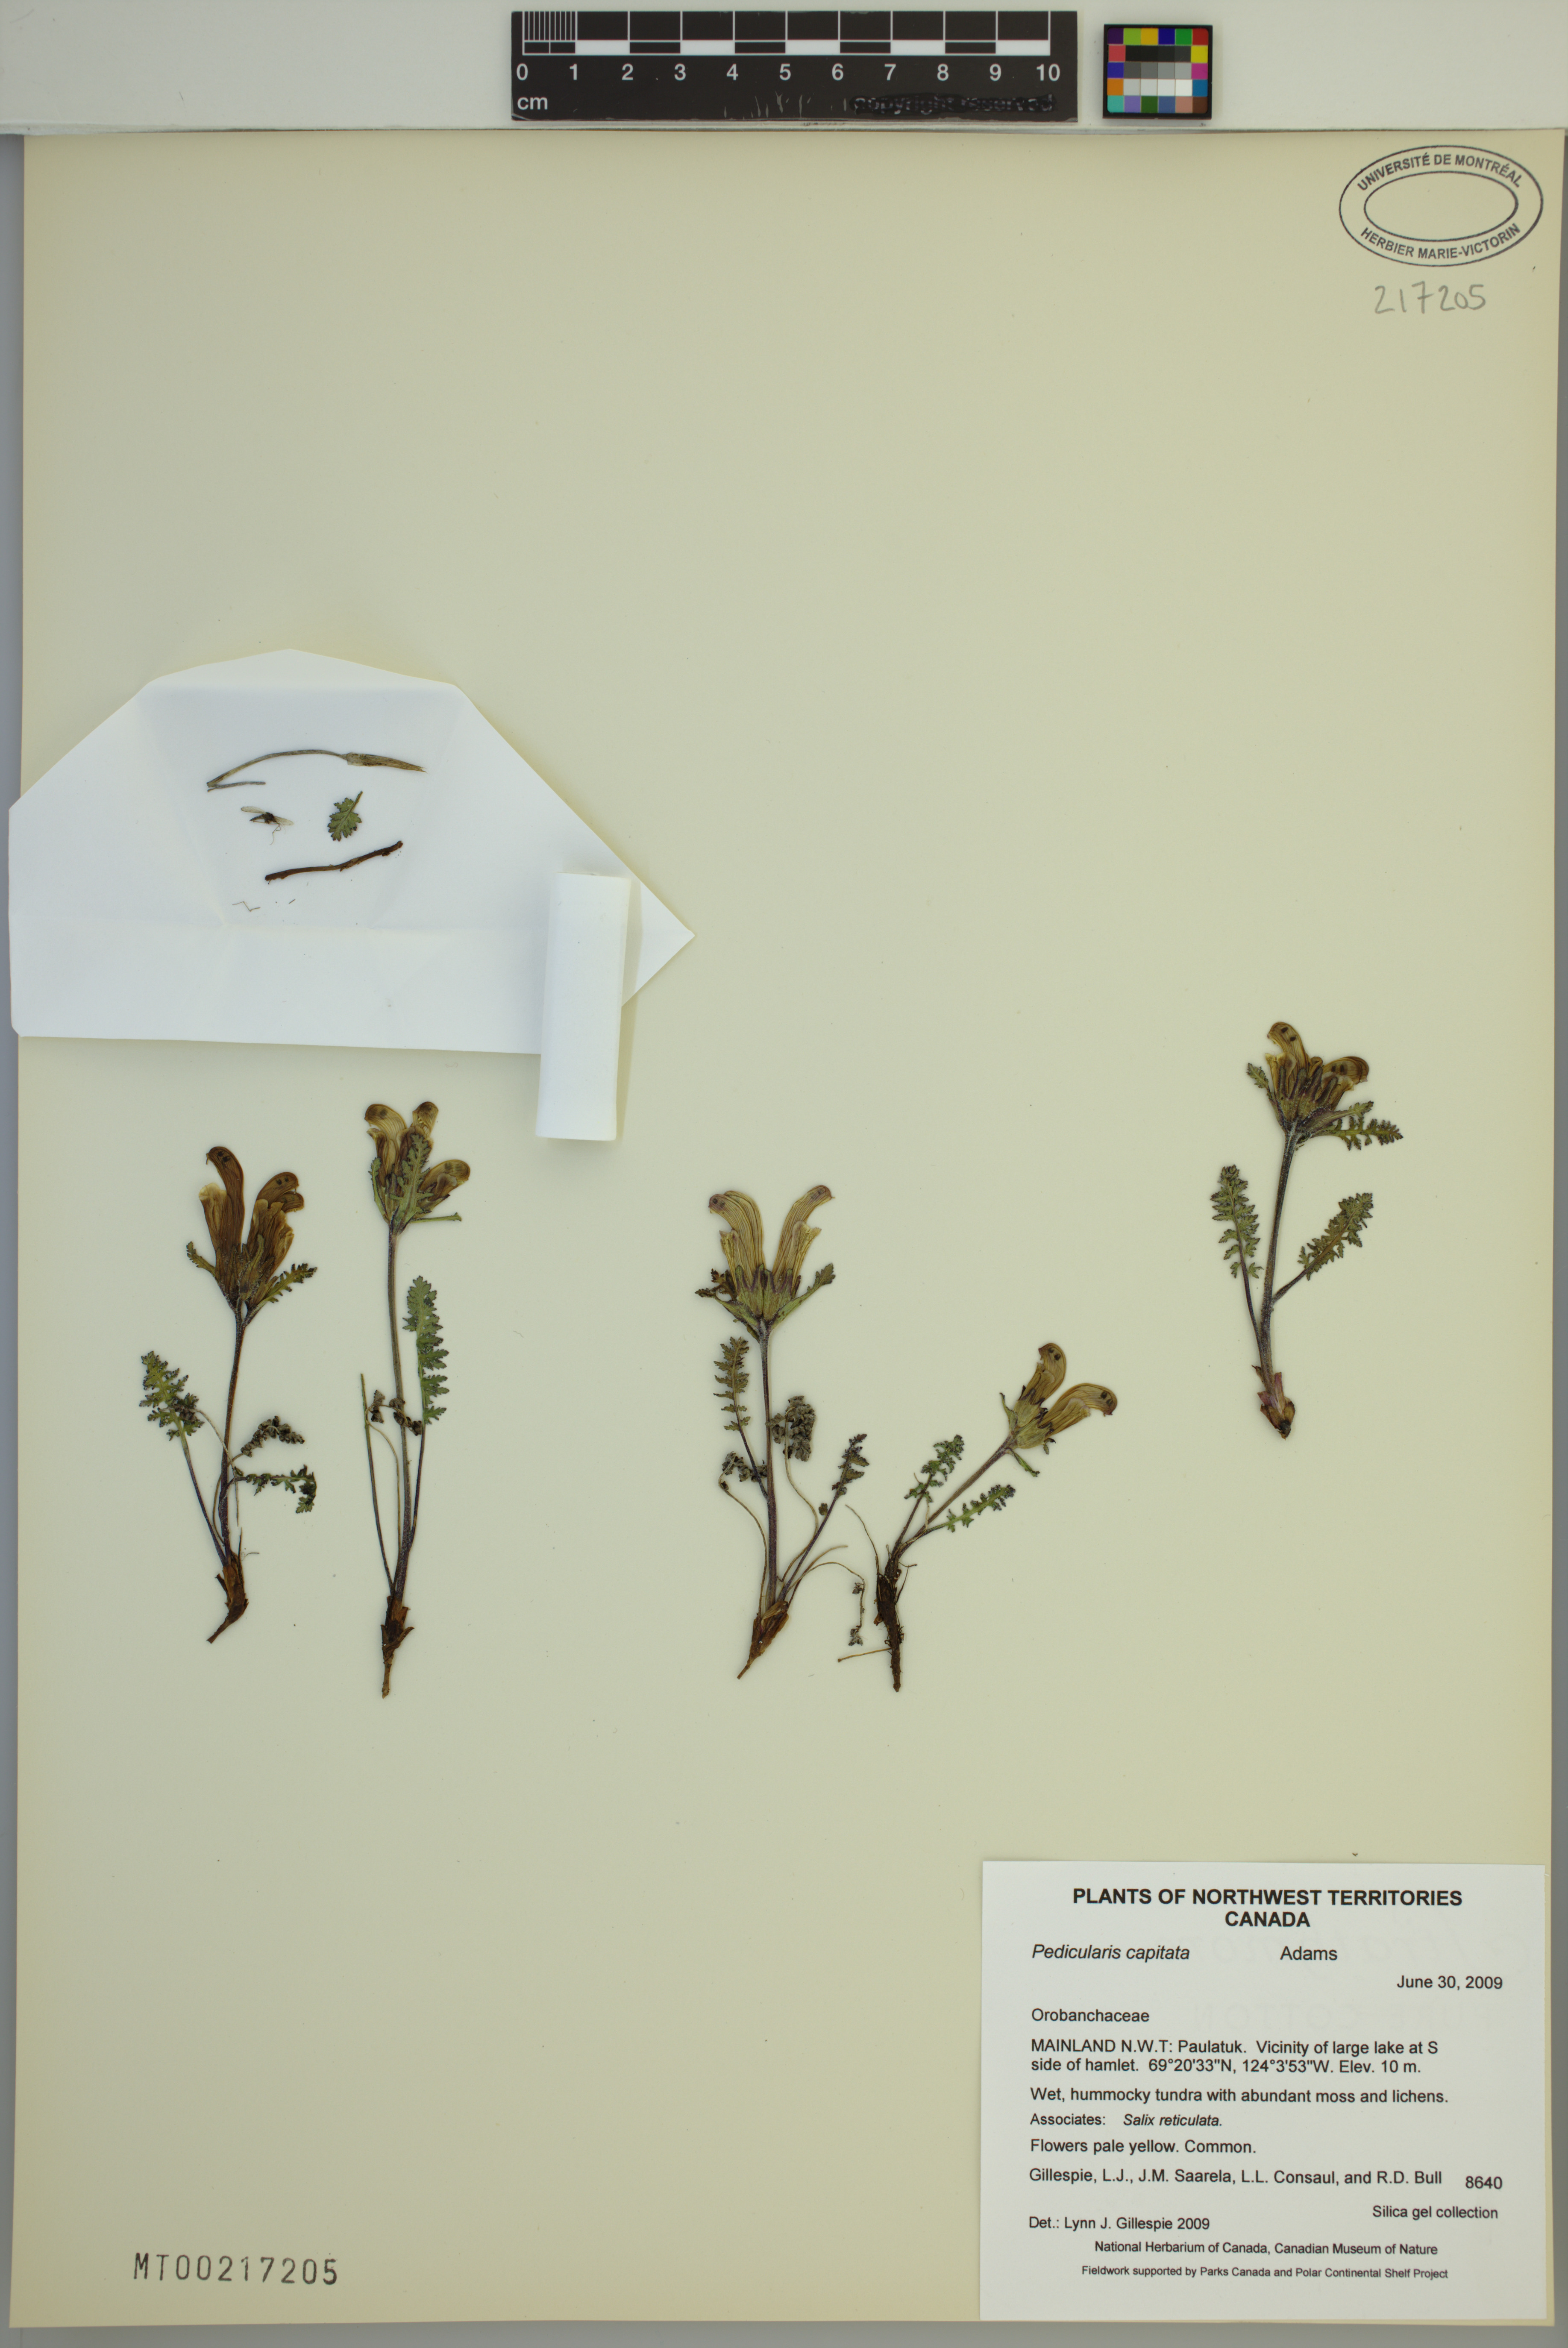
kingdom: Plantae
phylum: Tracheophyta
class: Magnoliopsida
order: Lamiales
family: Orobanchaceae
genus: Pedicularis
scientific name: Pedicularis capitata
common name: Capitate lousewort
